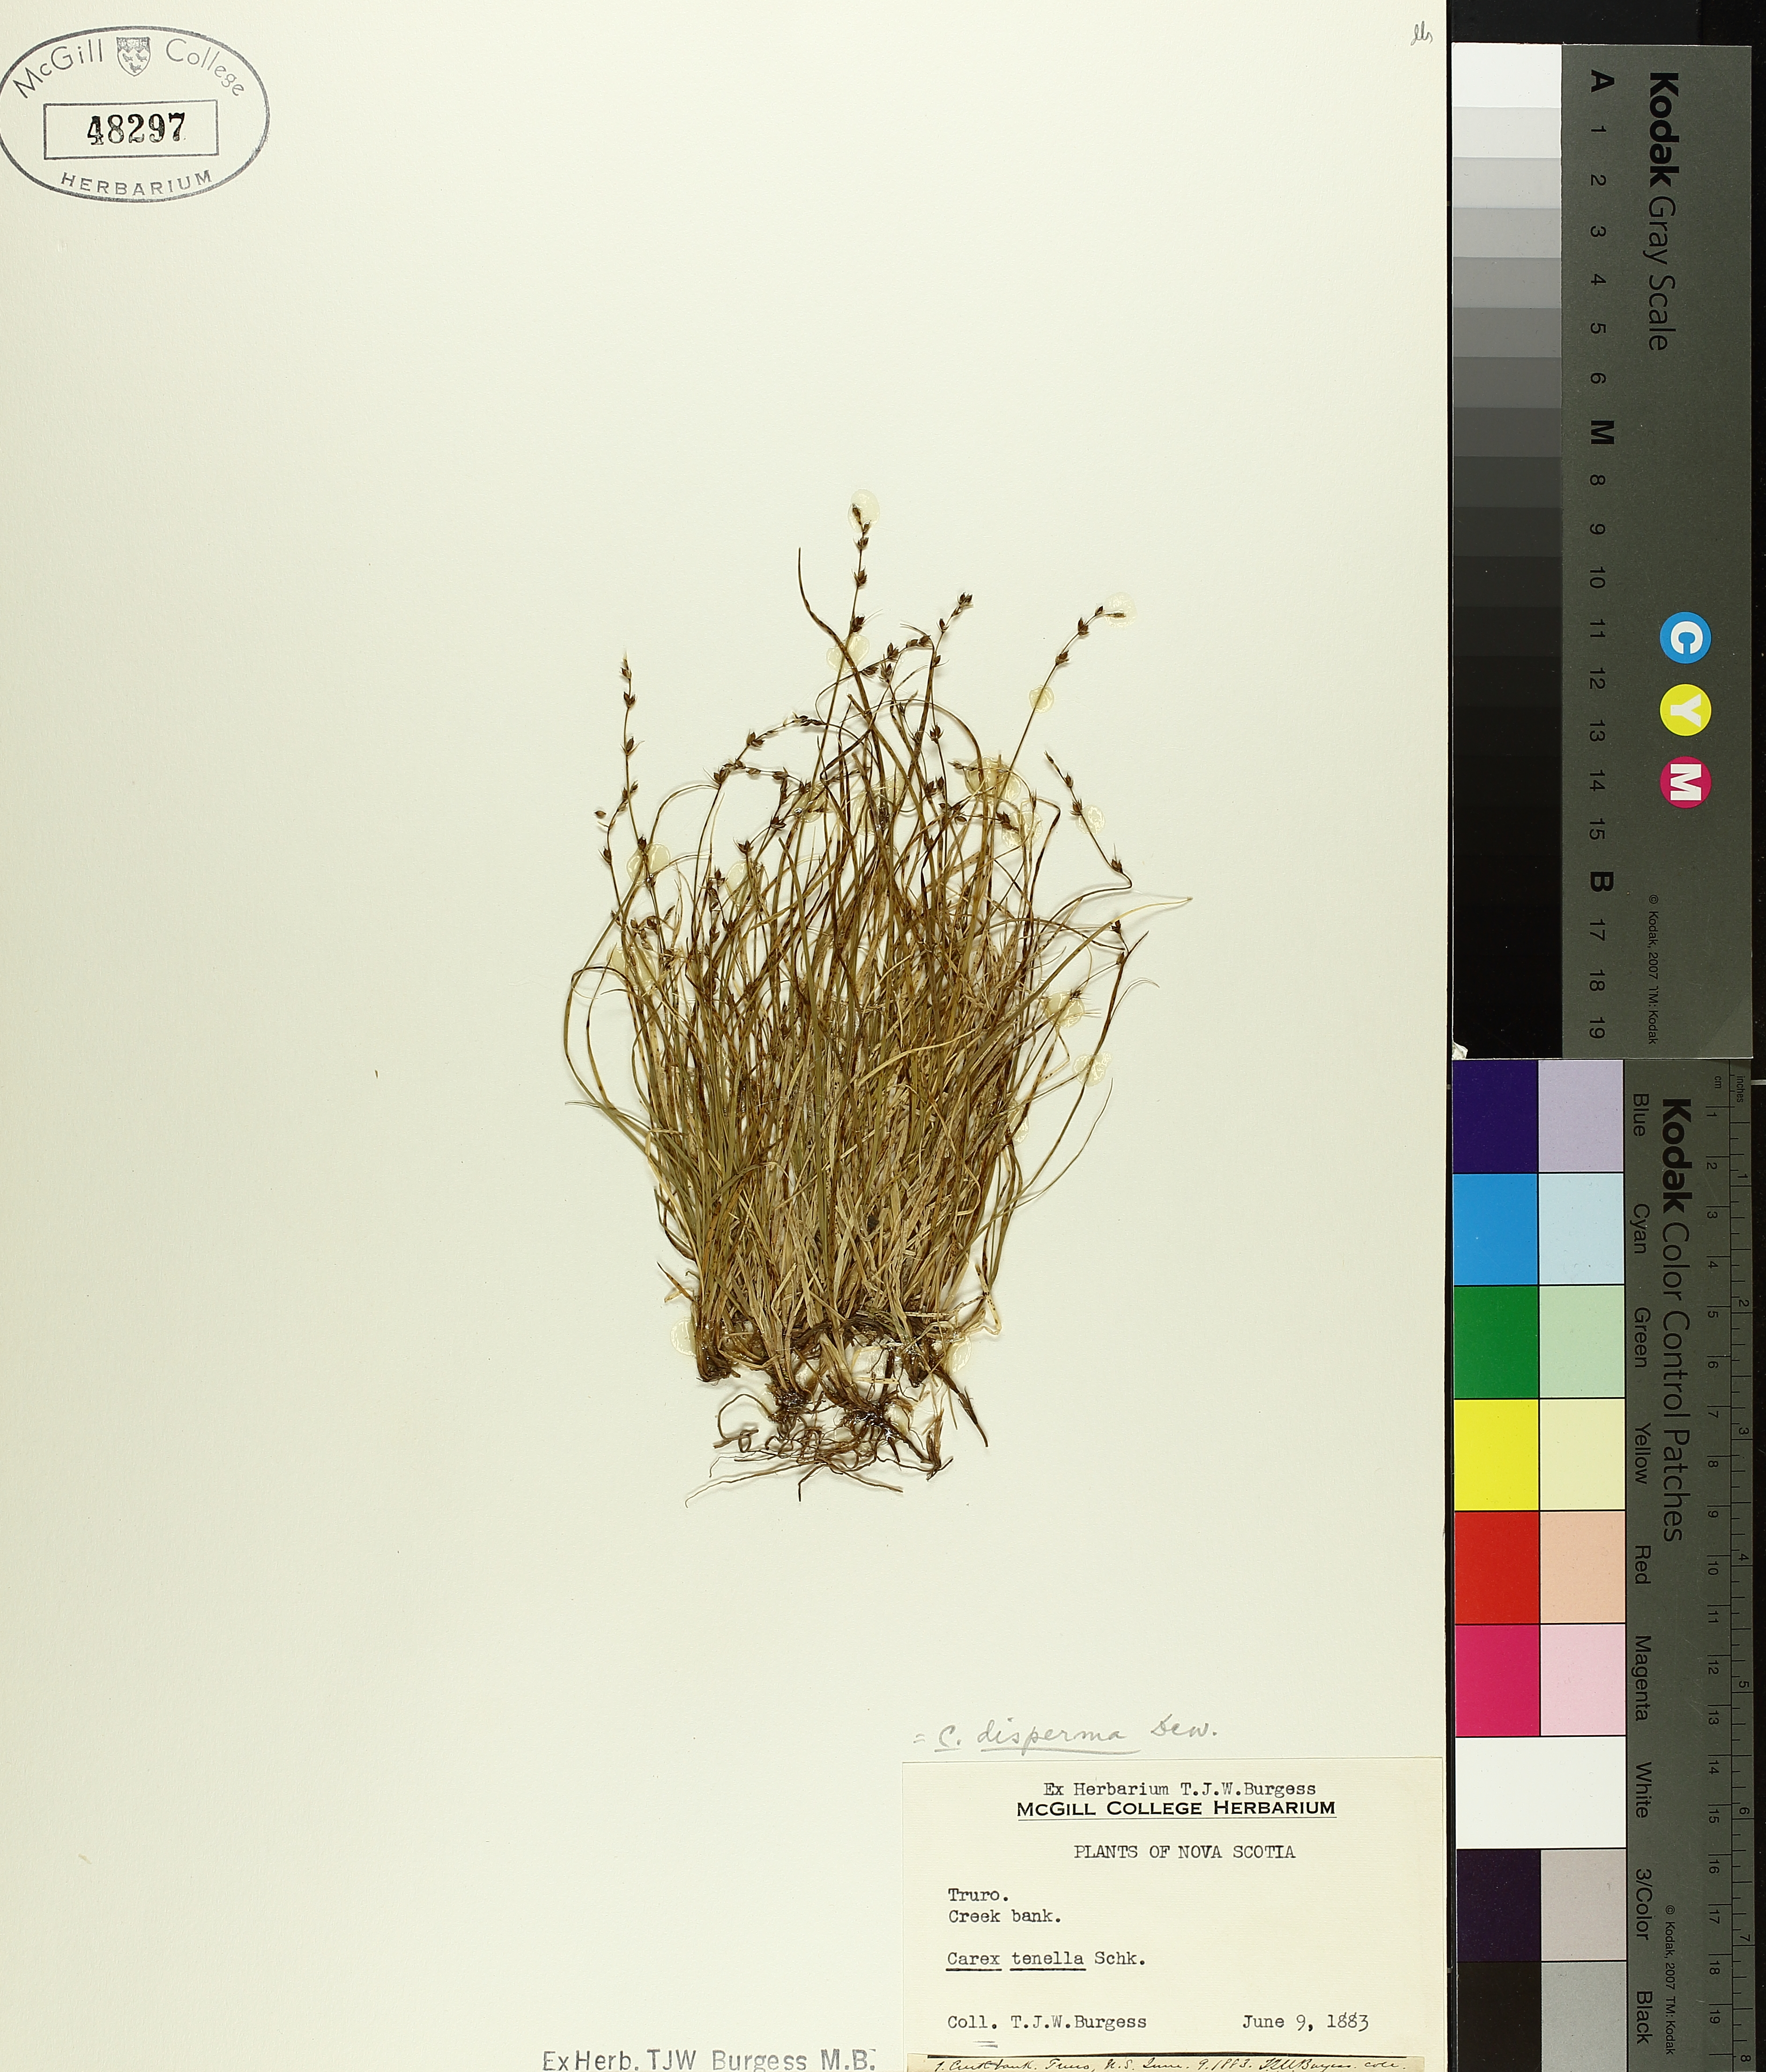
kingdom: Plantae
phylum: Tracheophyta
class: Liliopsida
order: Poales
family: Cyperaceae
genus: Carex
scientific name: Carex disperma
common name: Short-leaved sedge
